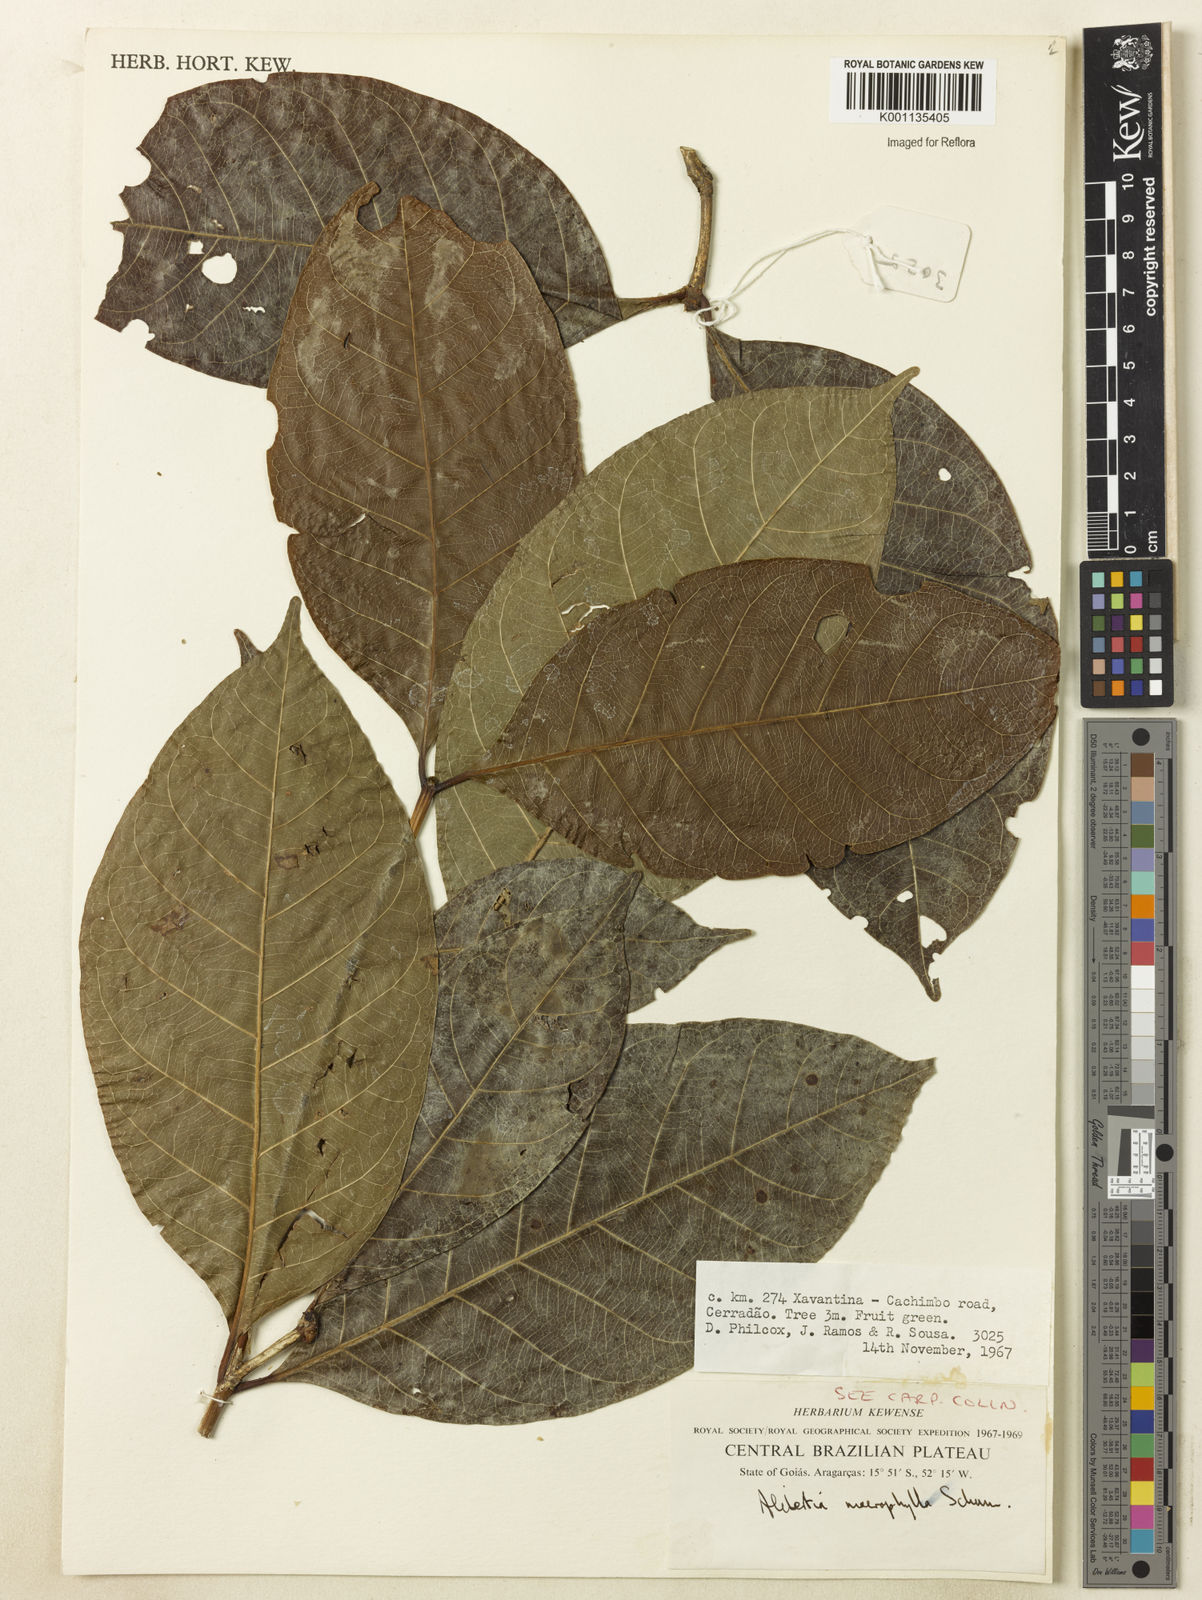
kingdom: Plantae
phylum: Tracheophyta
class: Magnoliopsida
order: Gentianales
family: Rubiaceae
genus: Cordiera
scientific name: Cordiera macrophylla
